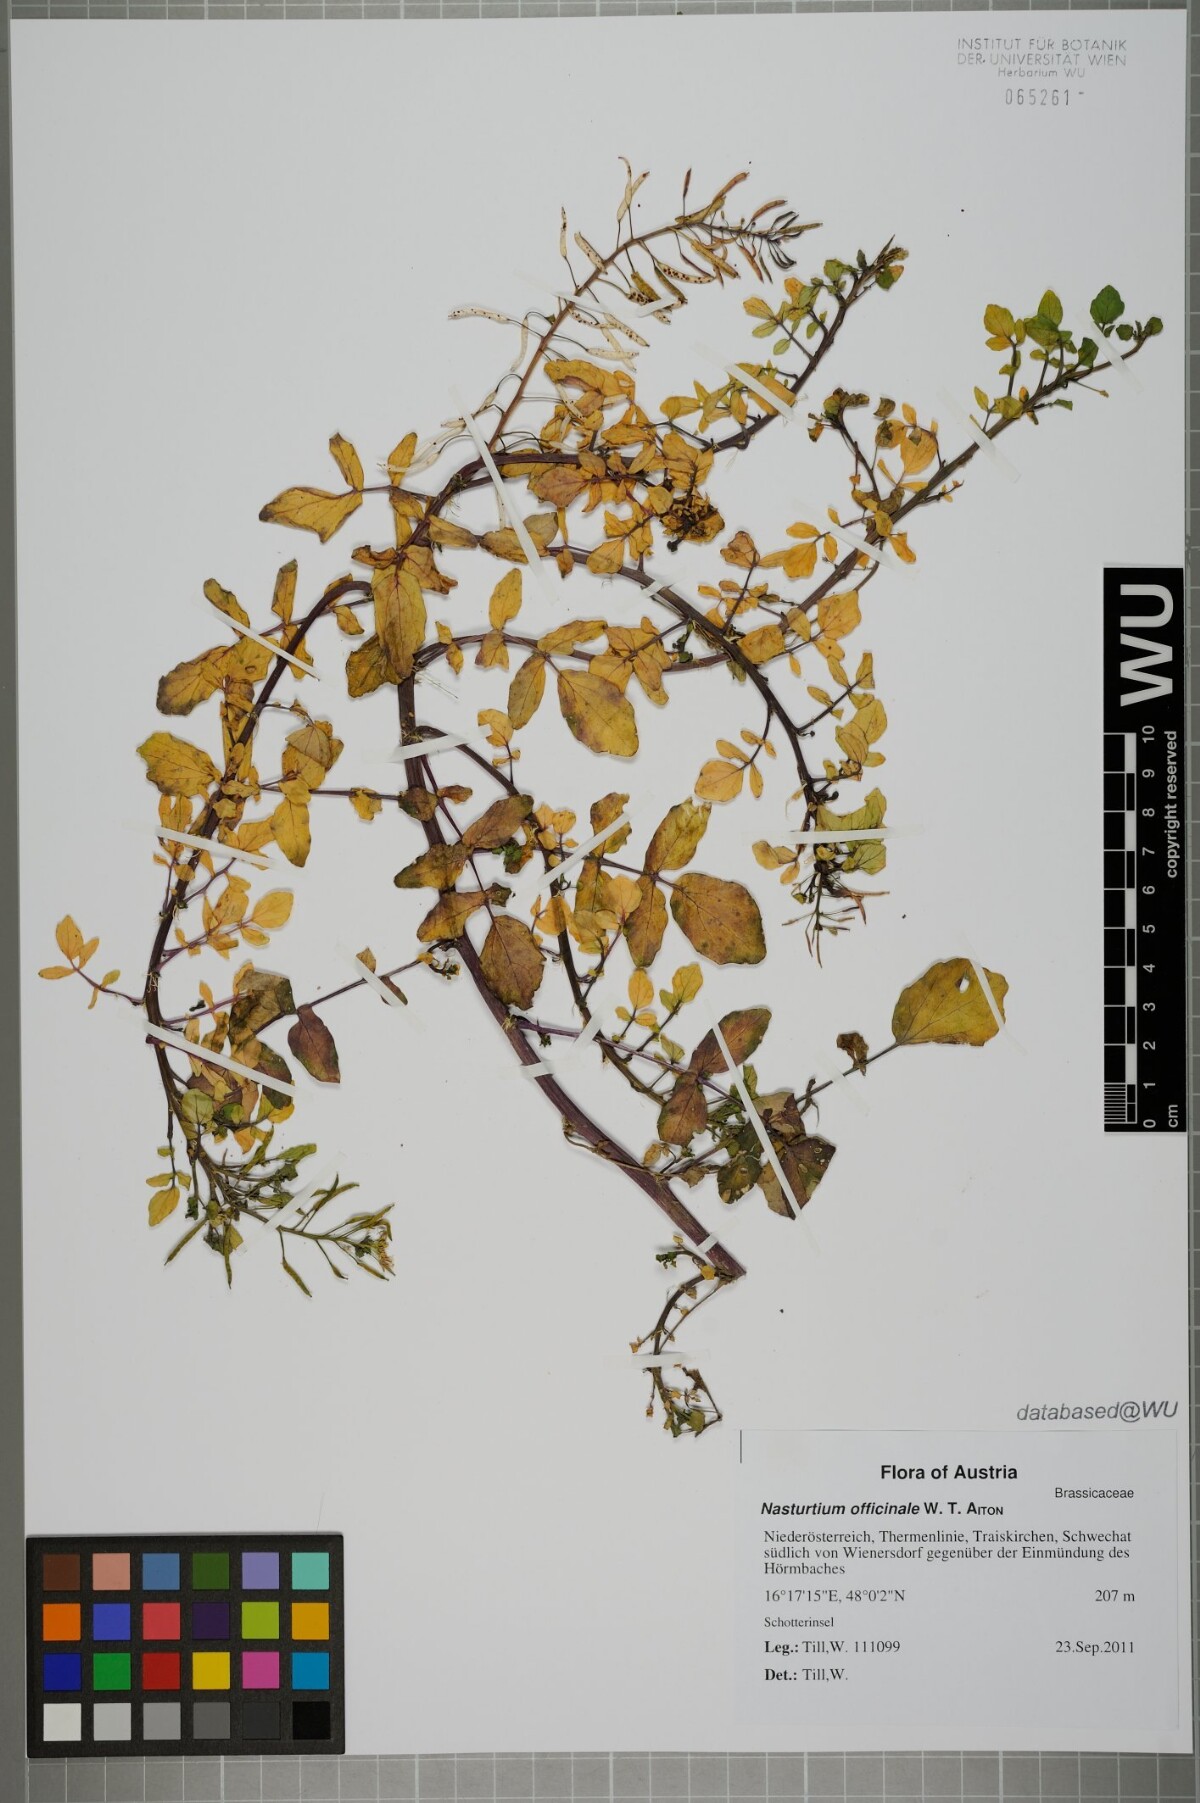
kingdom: Plantae
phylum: Tracheophyta
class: Magnoliopsida
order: Brassicales
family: Brassicaceae
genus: Nasturtium
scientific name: Nasturtium officinale
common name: Watercress
